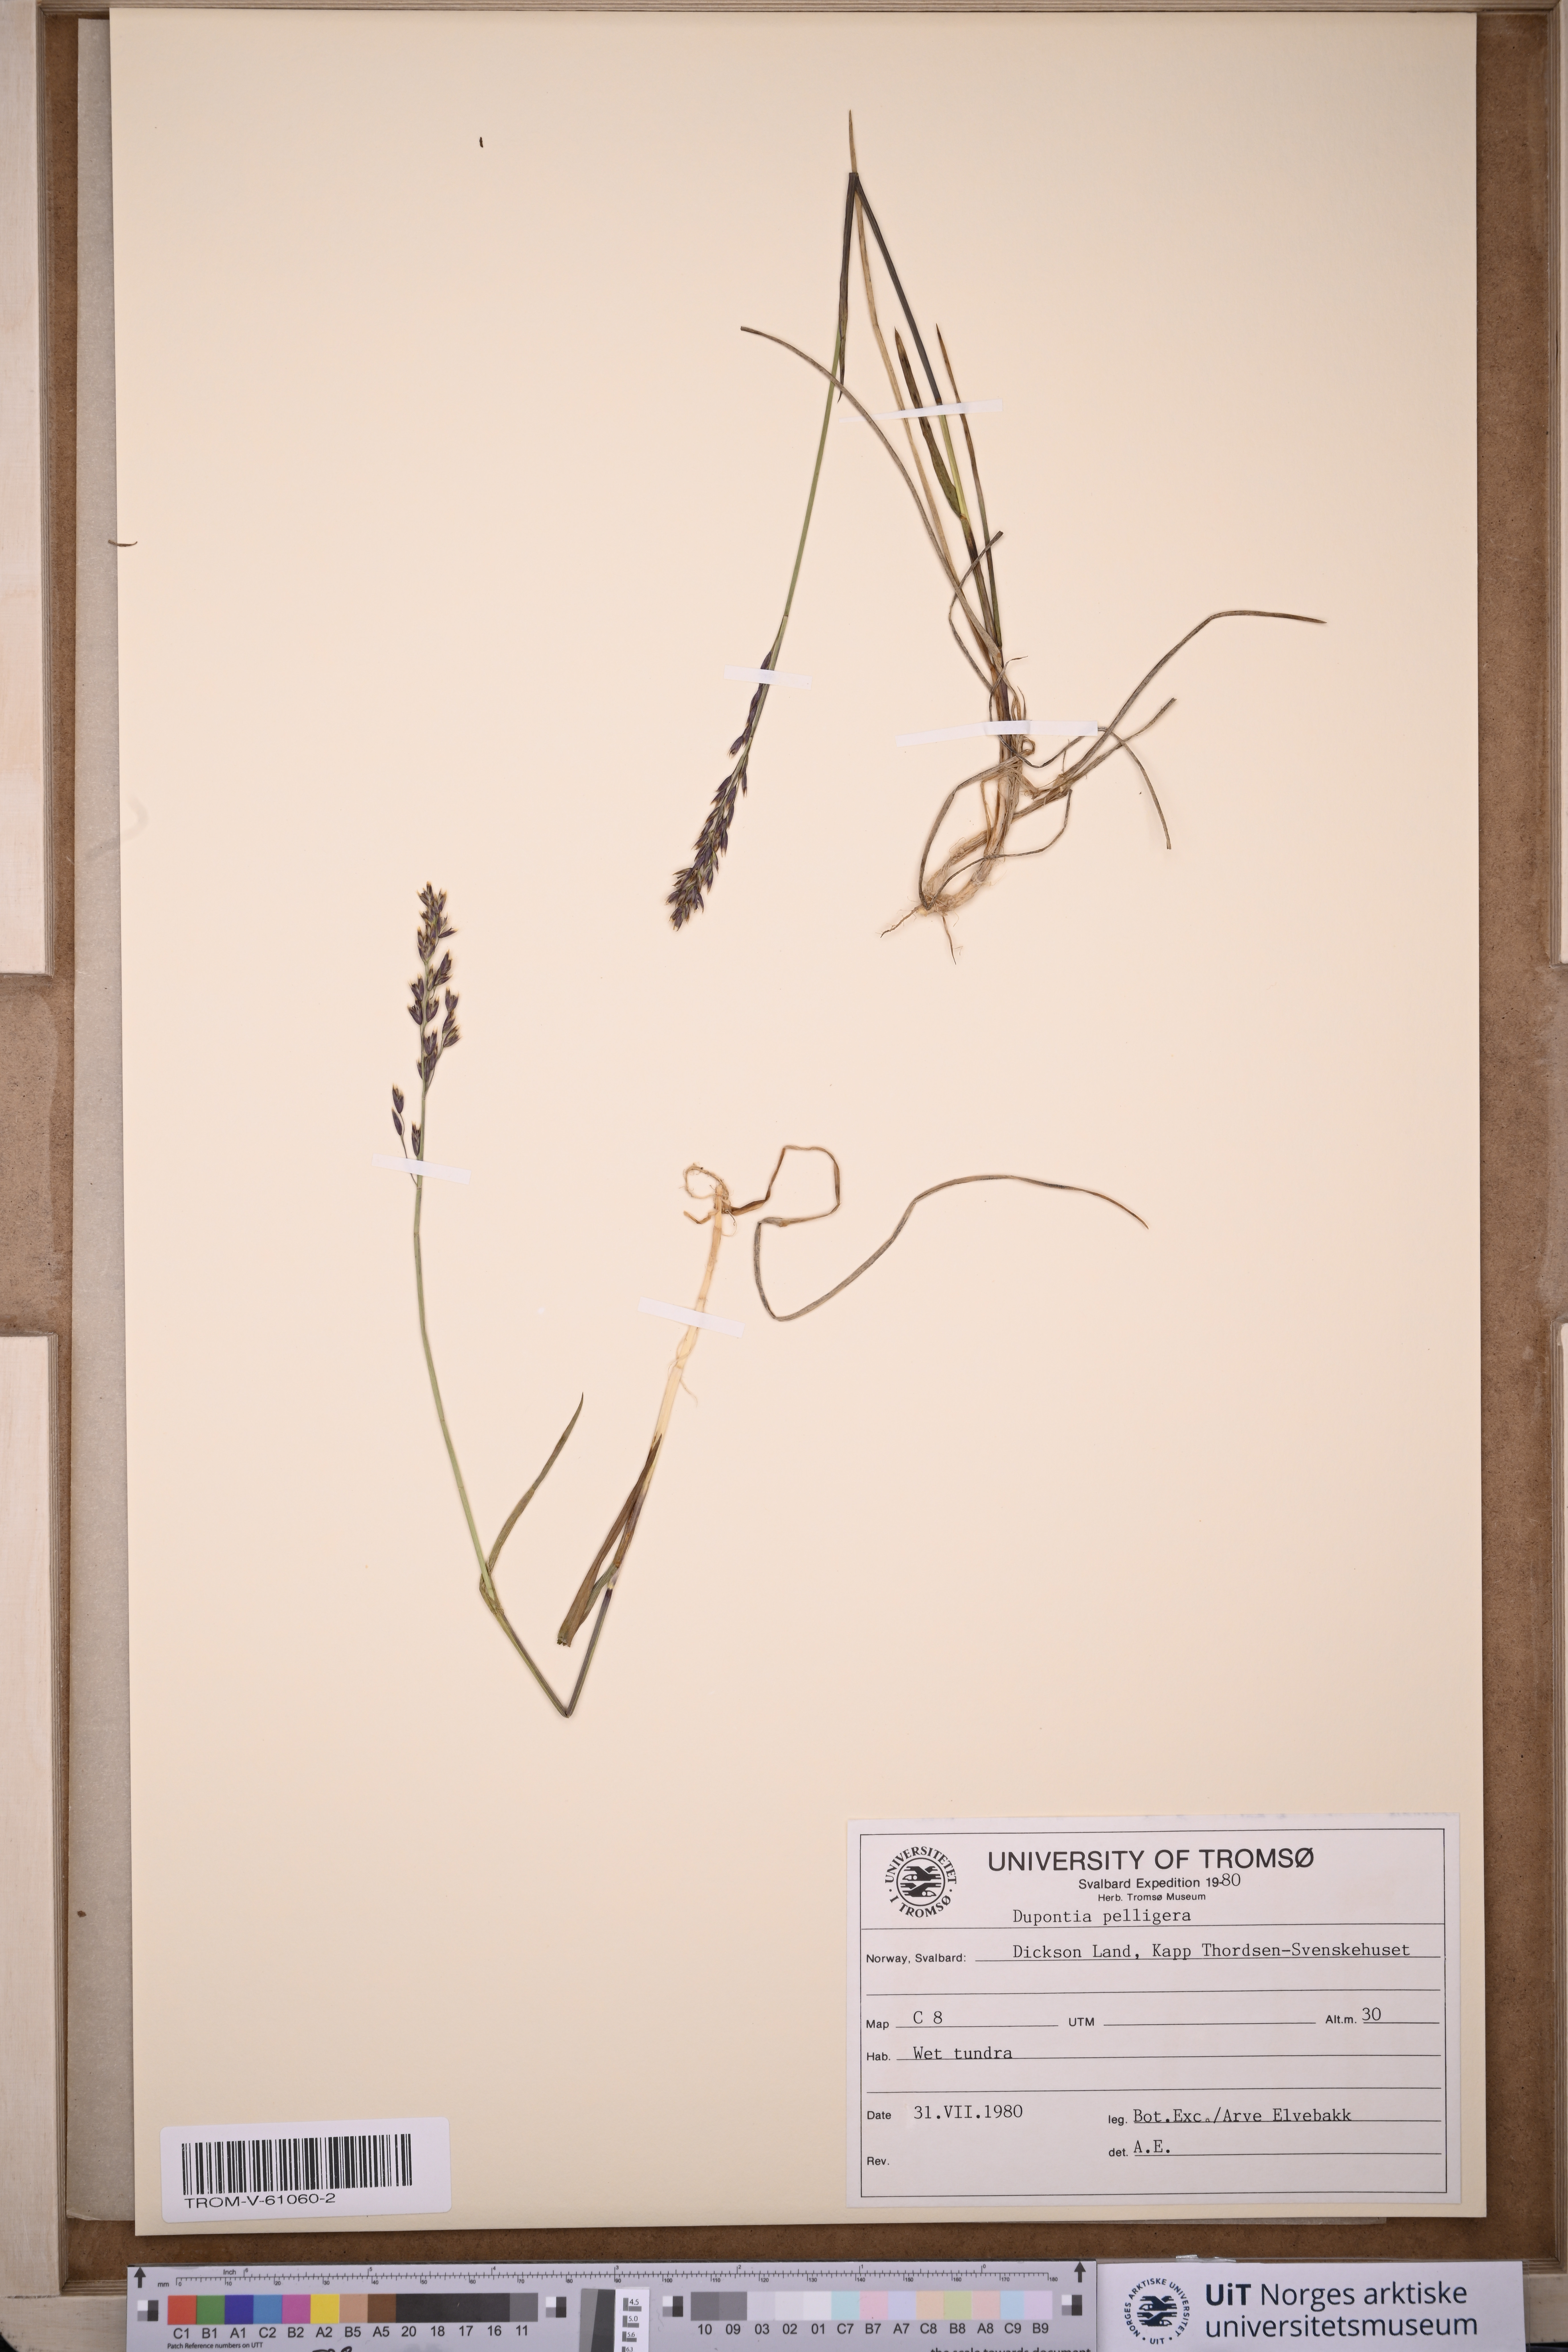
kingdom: Plantae
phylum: Tracheophyta
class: Liliopsida
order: Poales
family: Poaceae
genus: Dupontia
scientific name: Dupontia fisheri
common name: Tundra grass
